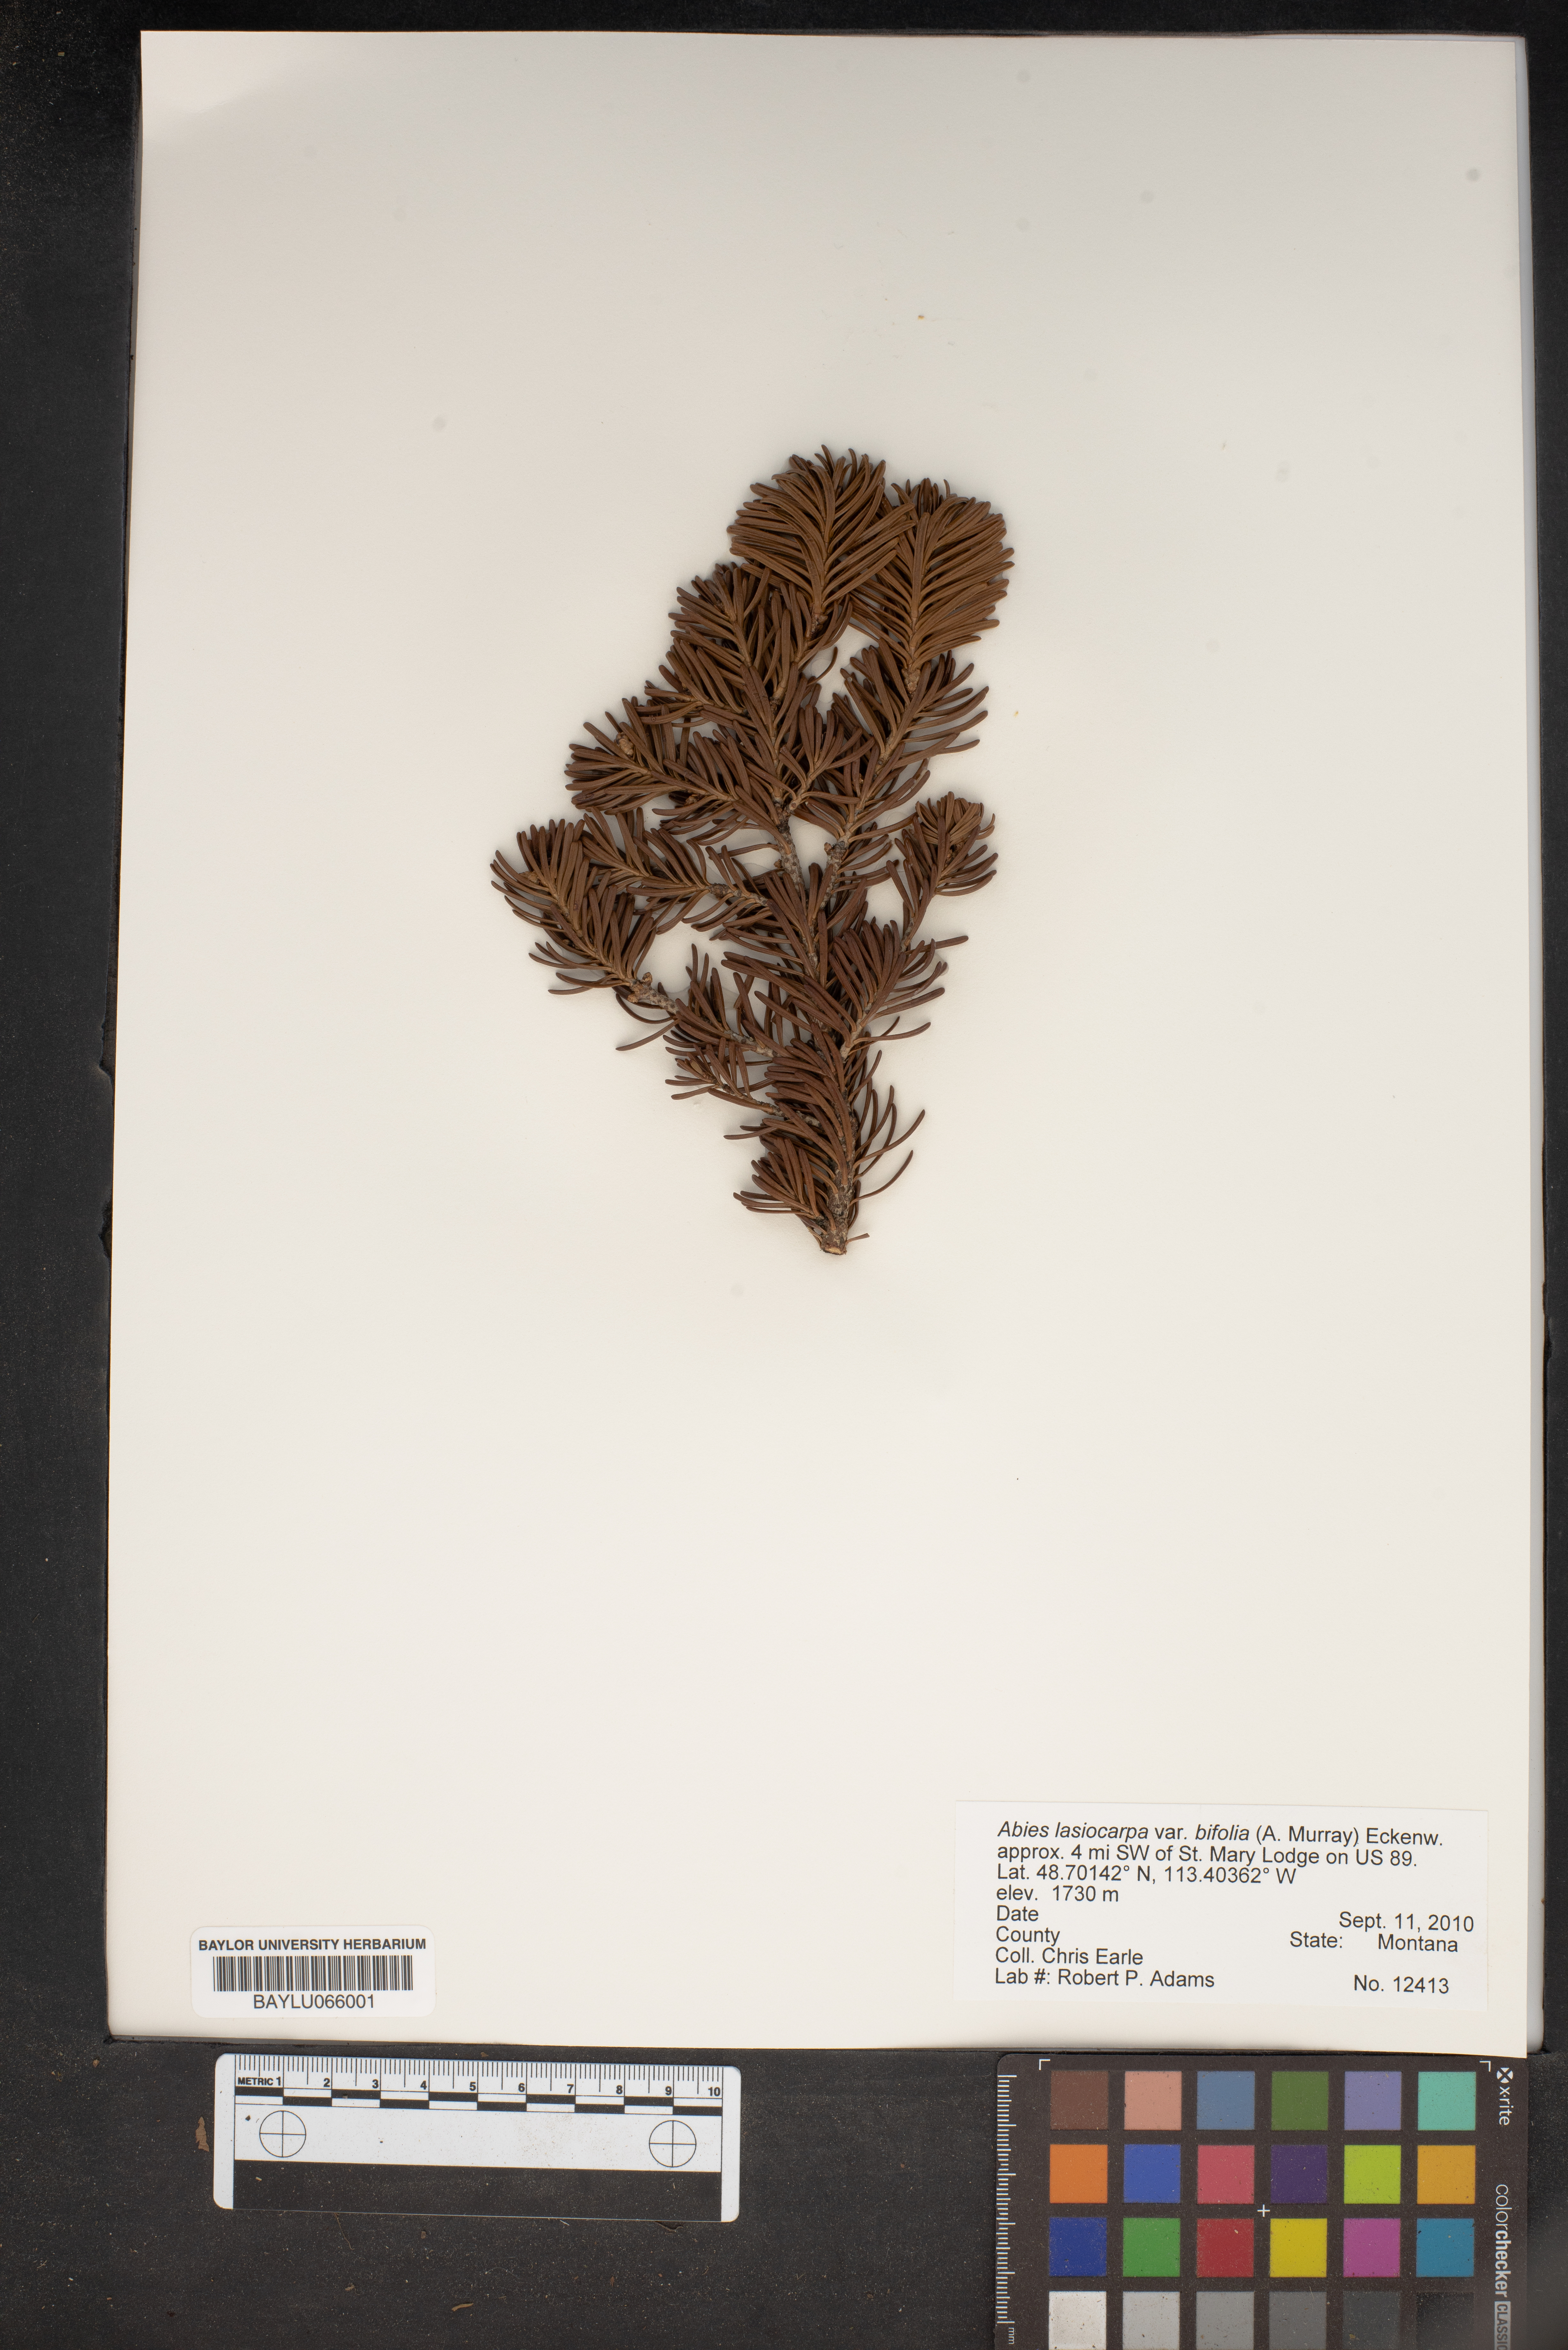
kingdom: Plantae
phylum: Tracheophyta
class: Pinopsida
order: Pinales
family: Pinaceae
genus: Abies
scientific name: Abies lasiocarpa
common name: Subalpine fir
